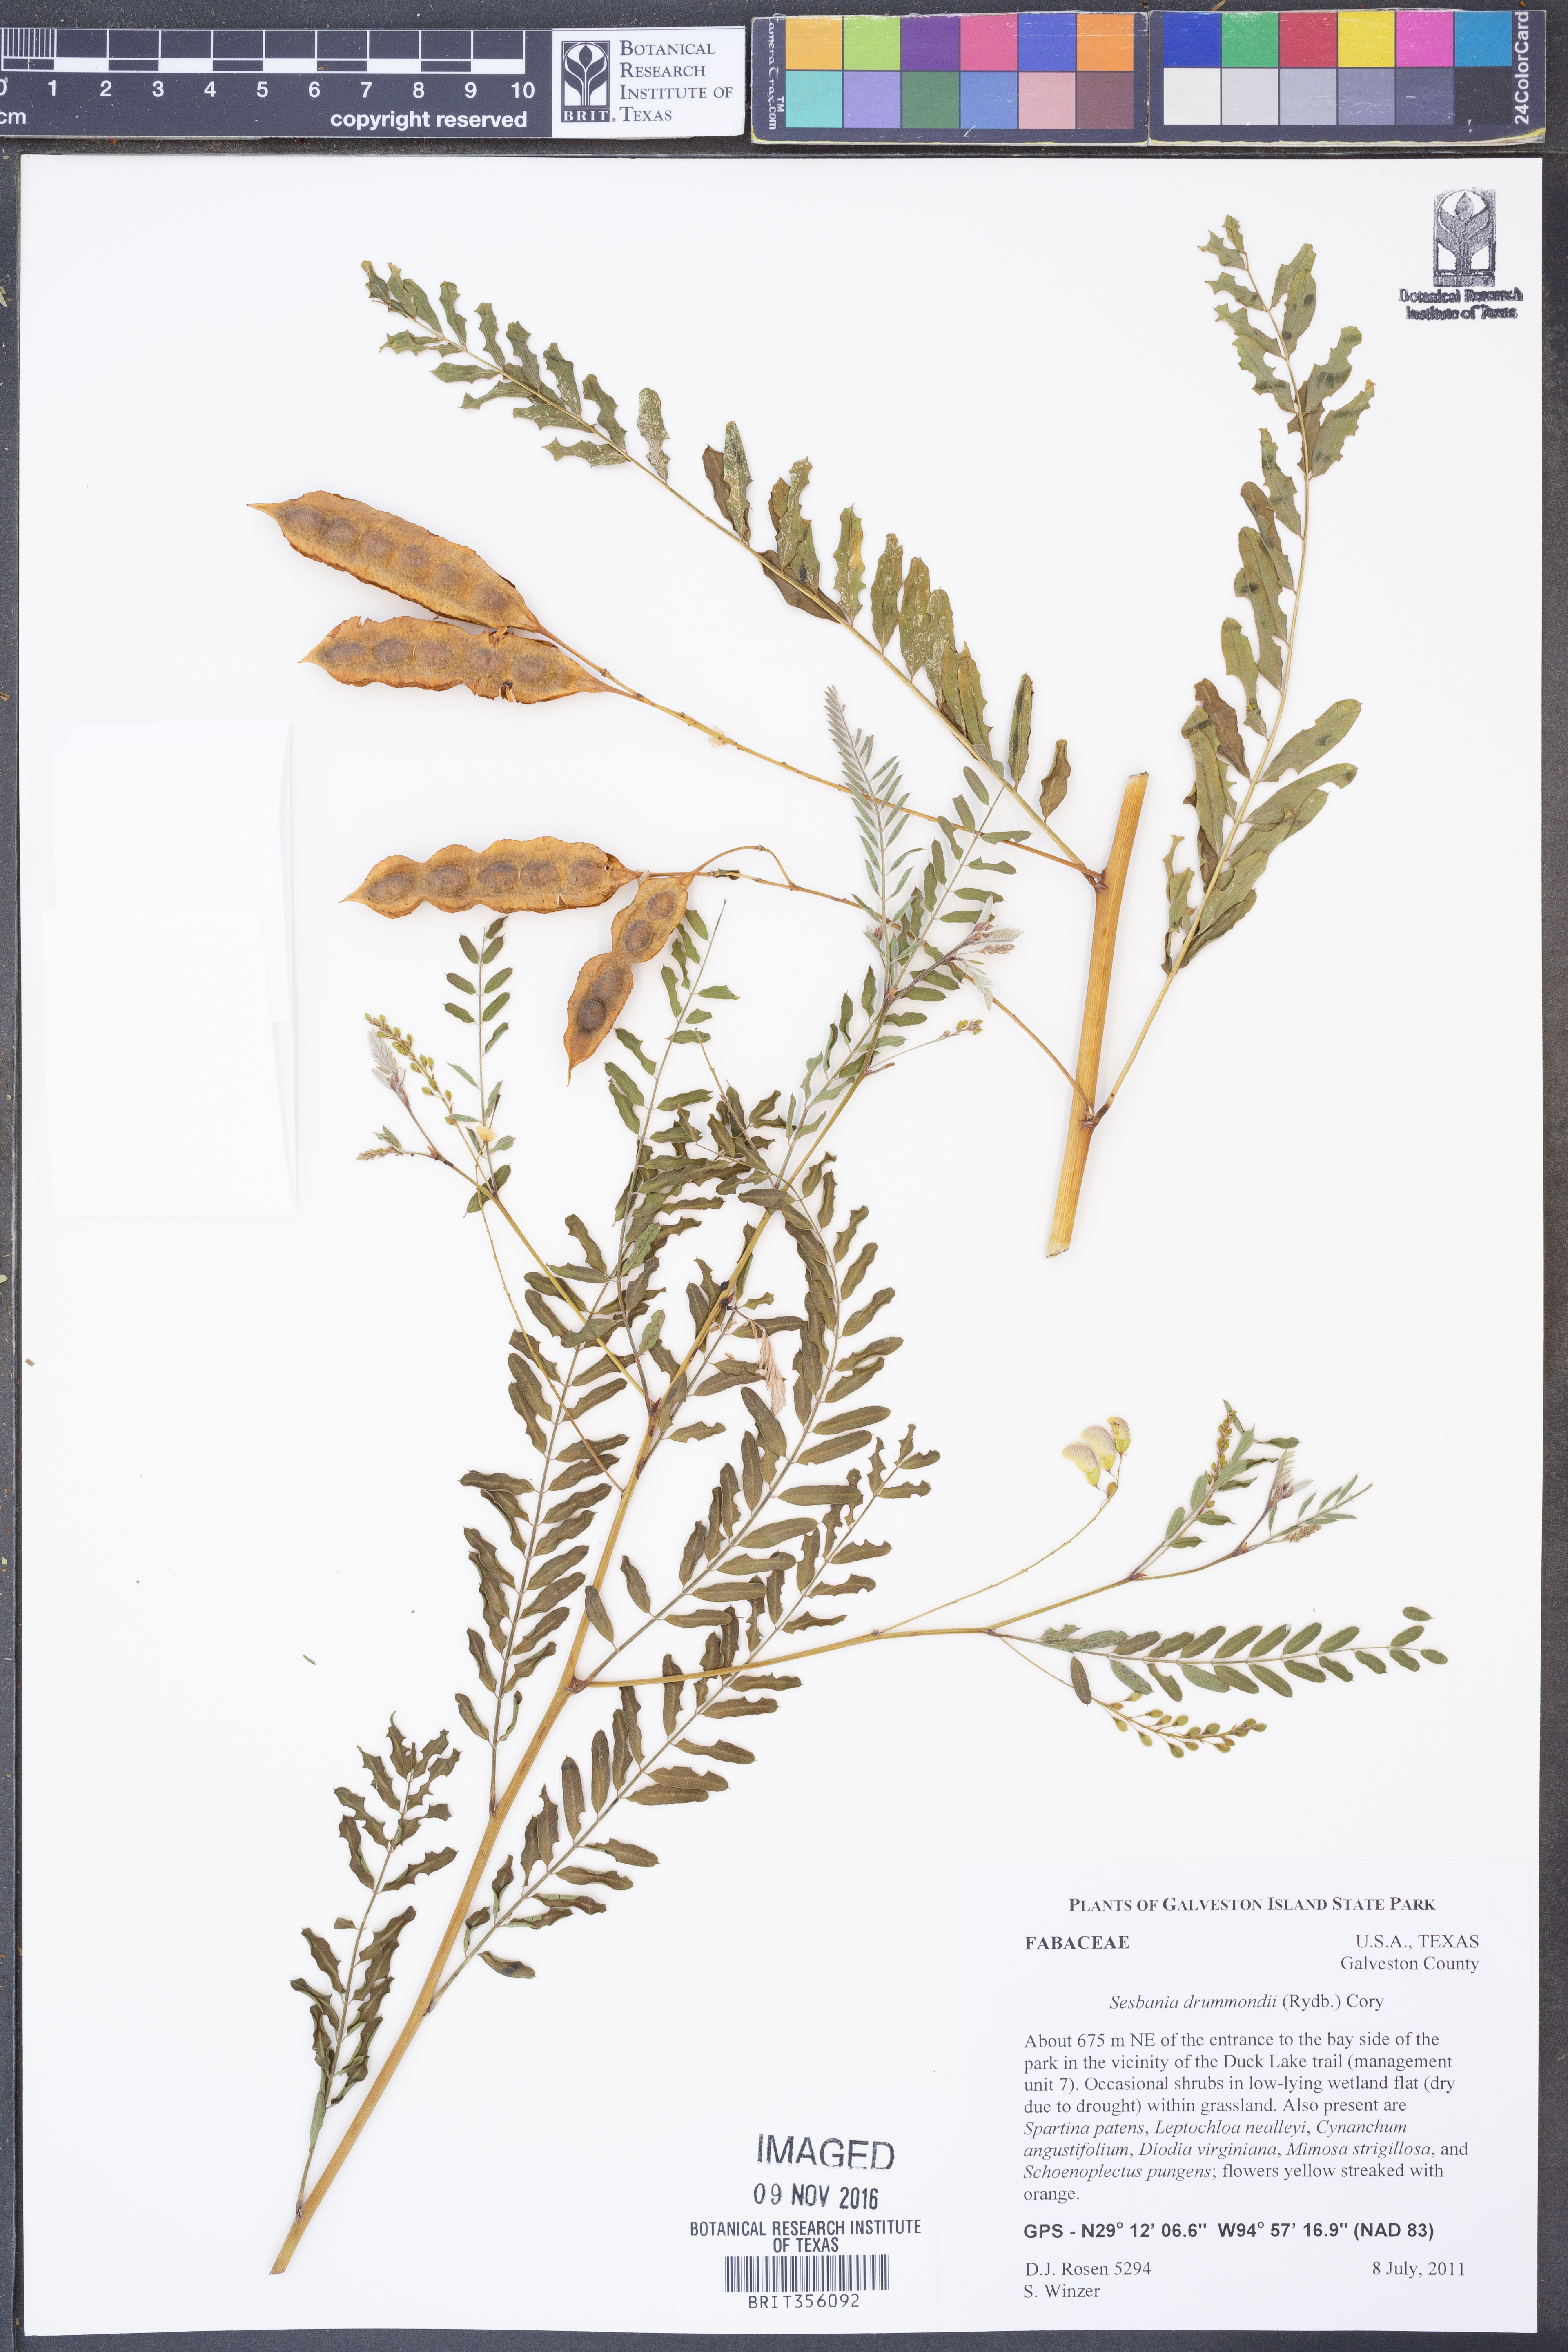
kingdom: Plantae
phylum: Tracheophyta
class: Magnoliopsida
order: Fabales
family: Fabaceae
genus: Sesbania
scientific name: Sesbania drummondii
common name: Poison-bean
